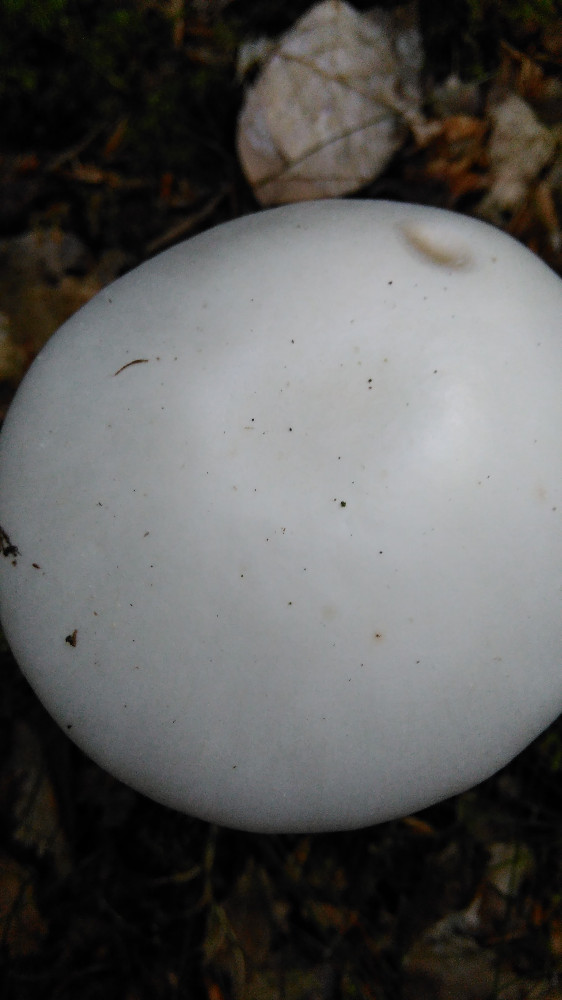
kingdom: Fungi
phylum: Basidiomycota
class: Agaricomycetes
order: Agaricales
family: Amanitaceae
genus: Amanita
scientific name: Amanita virosa
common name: snehvid fluesvamp
